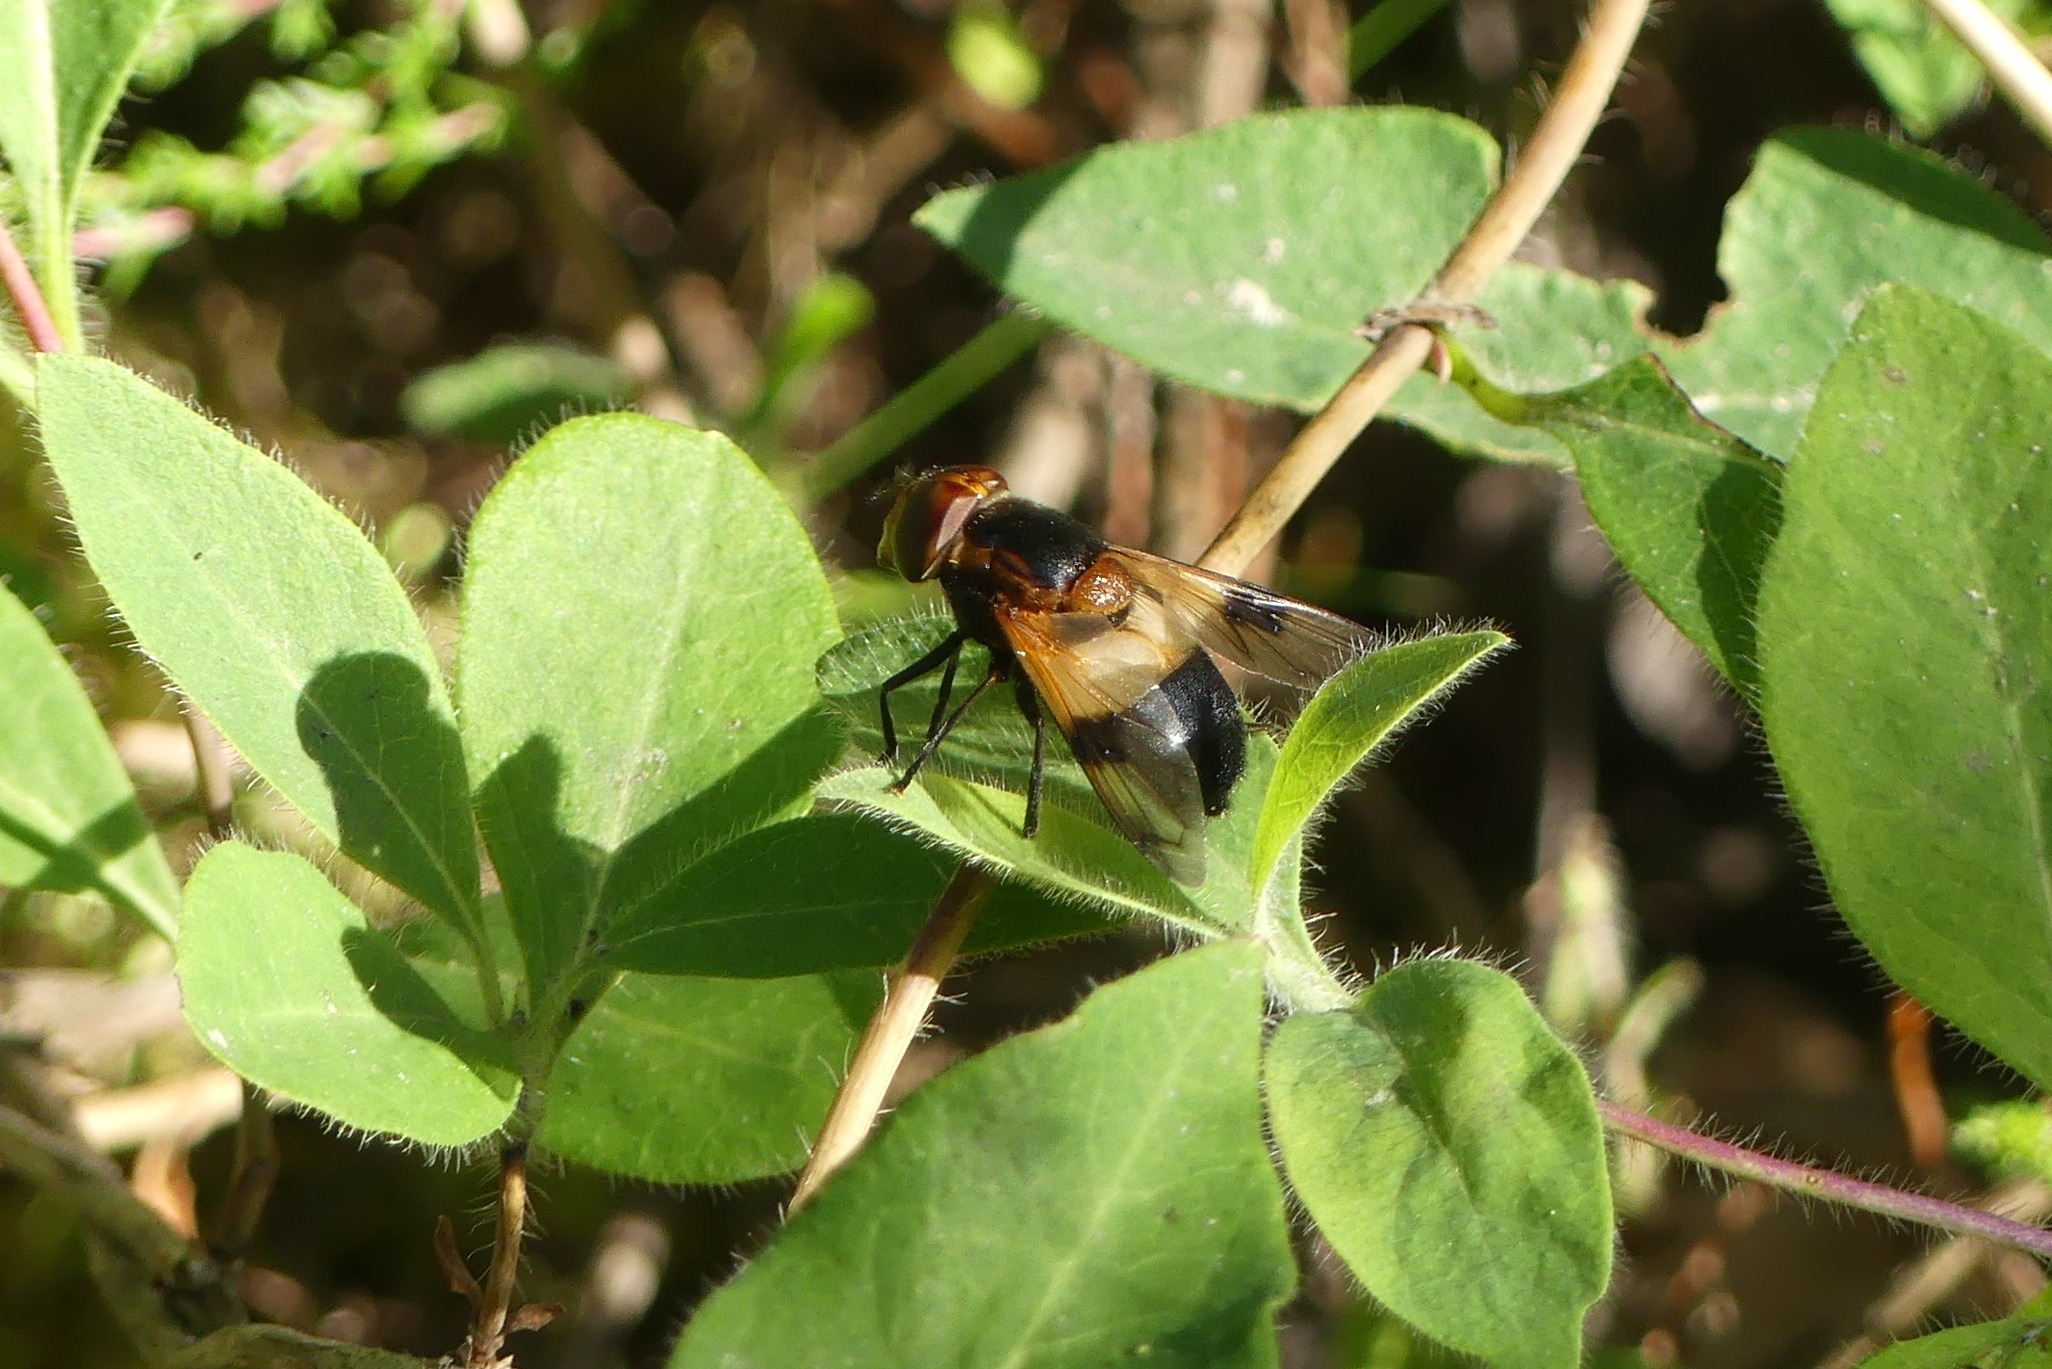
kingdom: Animalia
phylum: Arthropoda
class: Insecta
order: Diptera
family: Syrphidae
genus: Volucella
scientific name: Volucella pellucens
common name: Hvidbåndet humlesvirreflue
